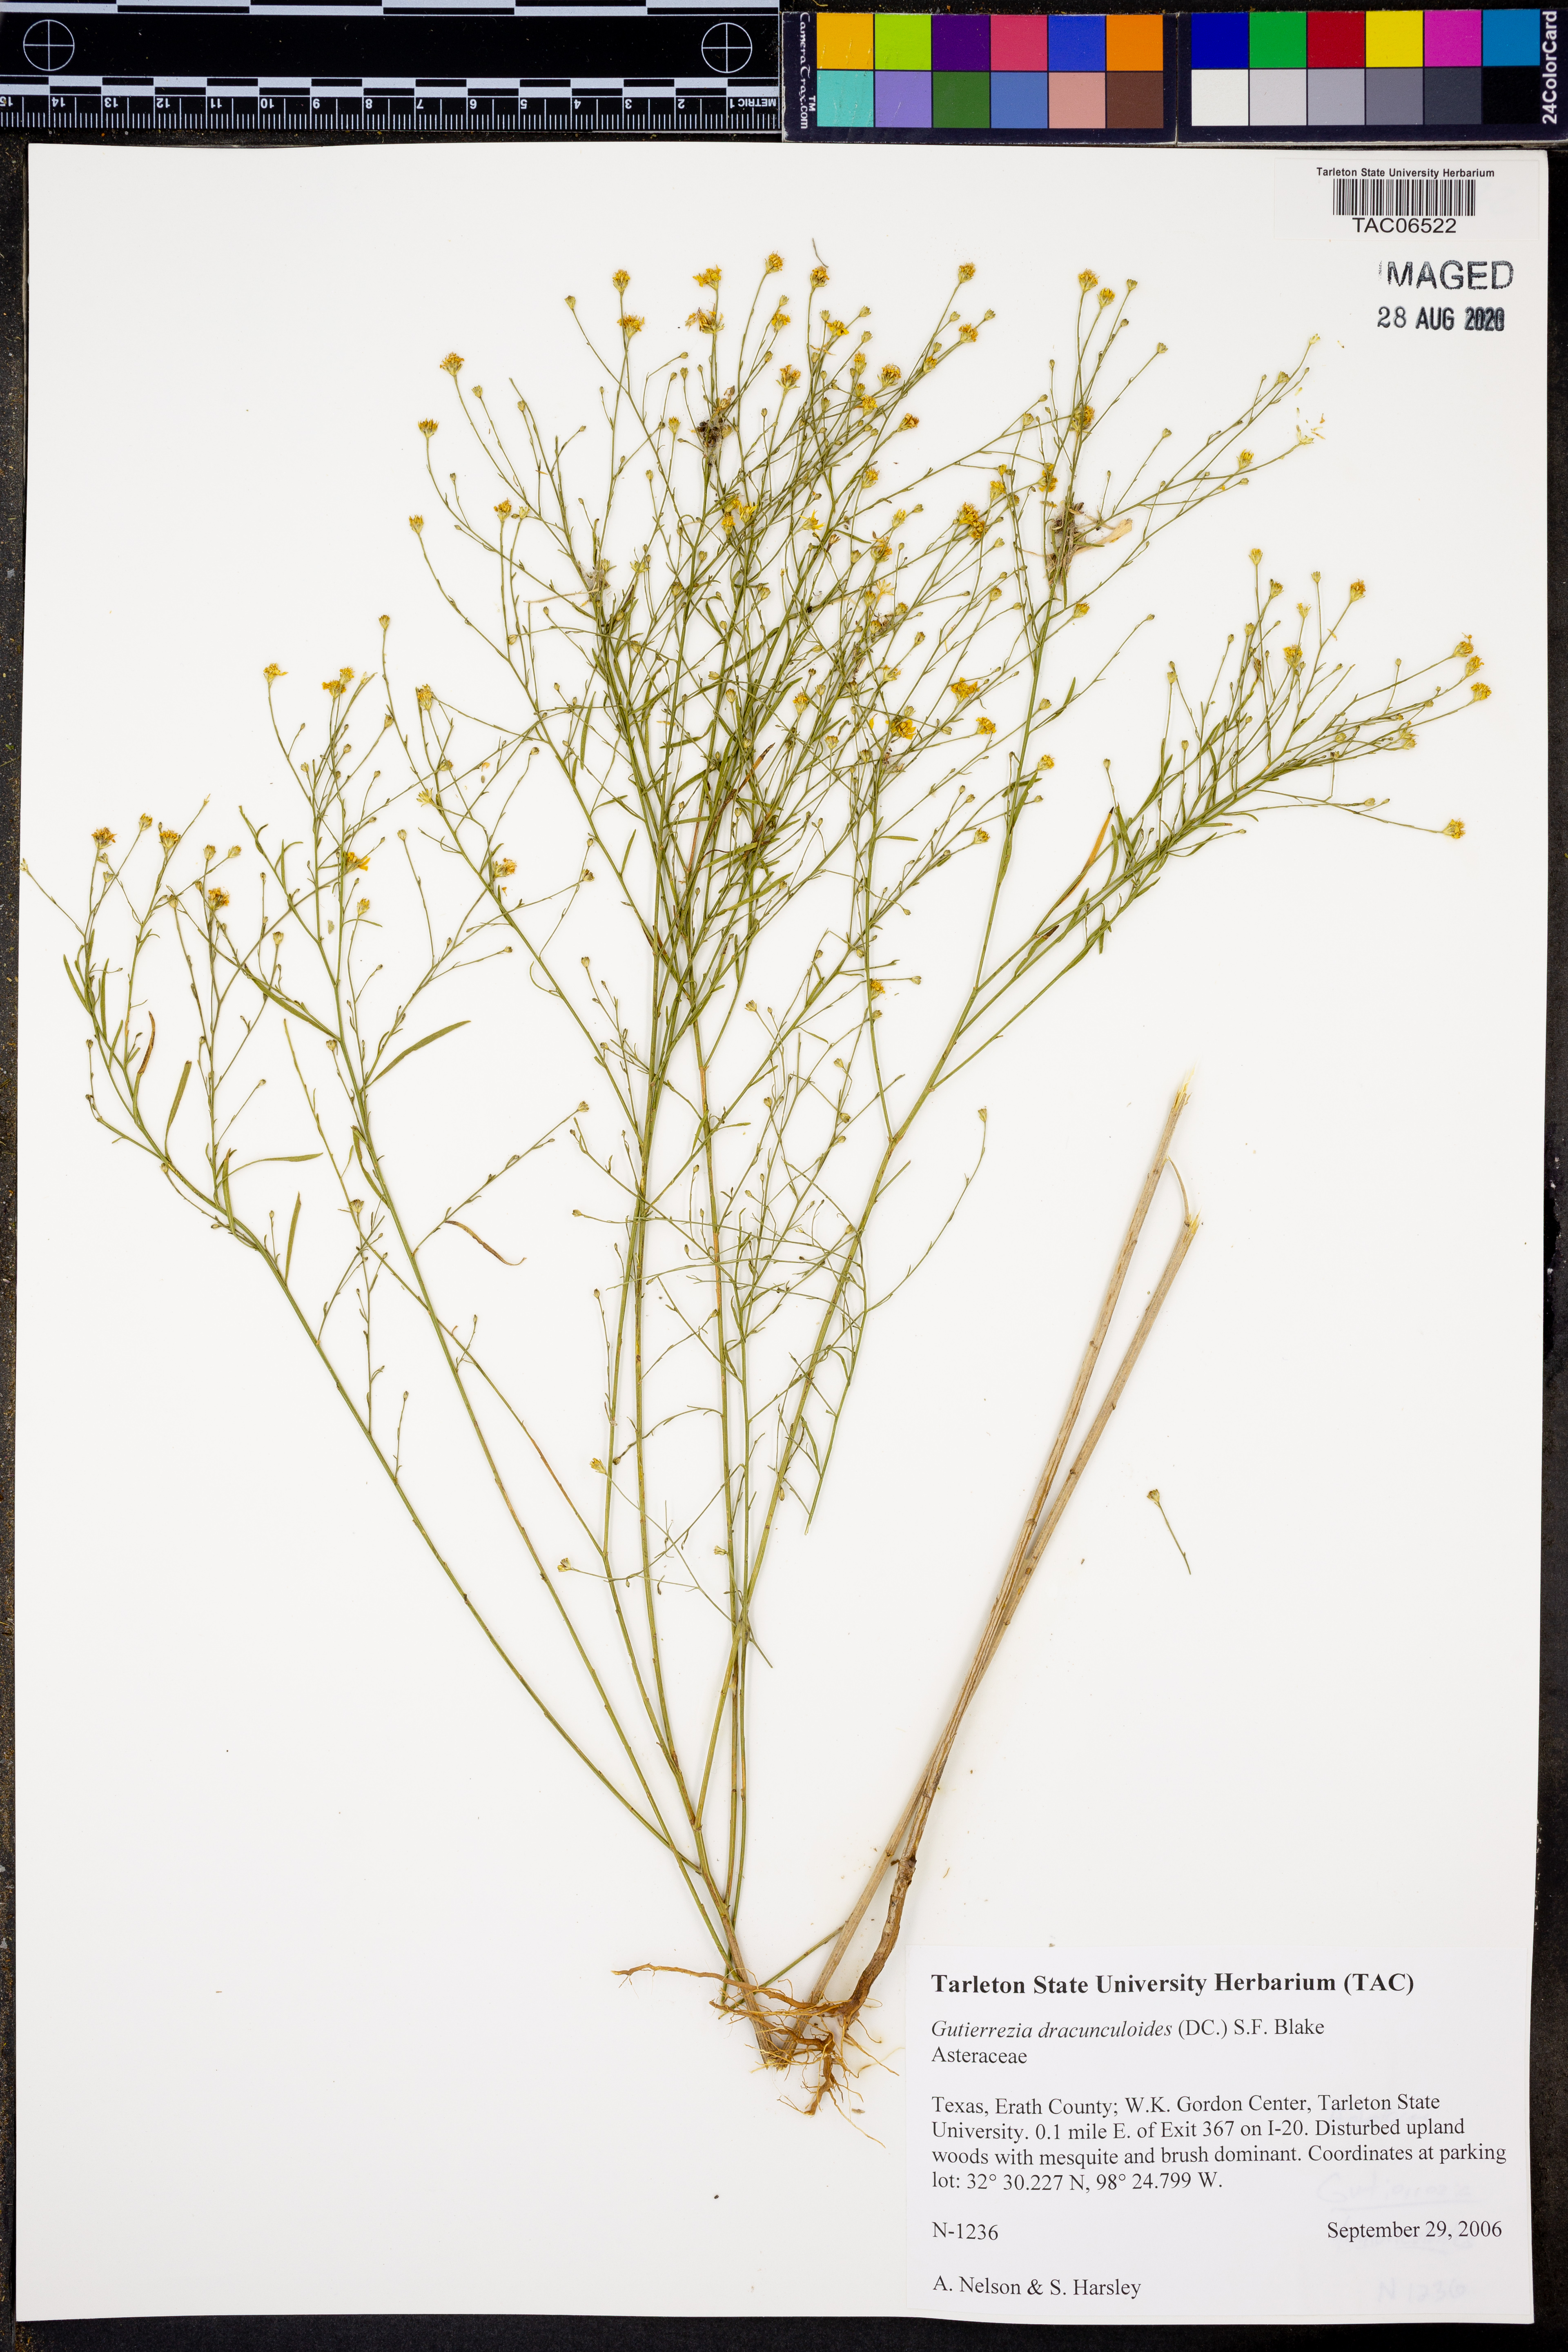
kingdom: Plantae
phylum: Tracheophyta
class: Magnoliopsida
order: Asterales
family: Asteraceae
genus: Amphiachyris
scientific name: Amphiachyris dracunculoides
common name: Broomweed
